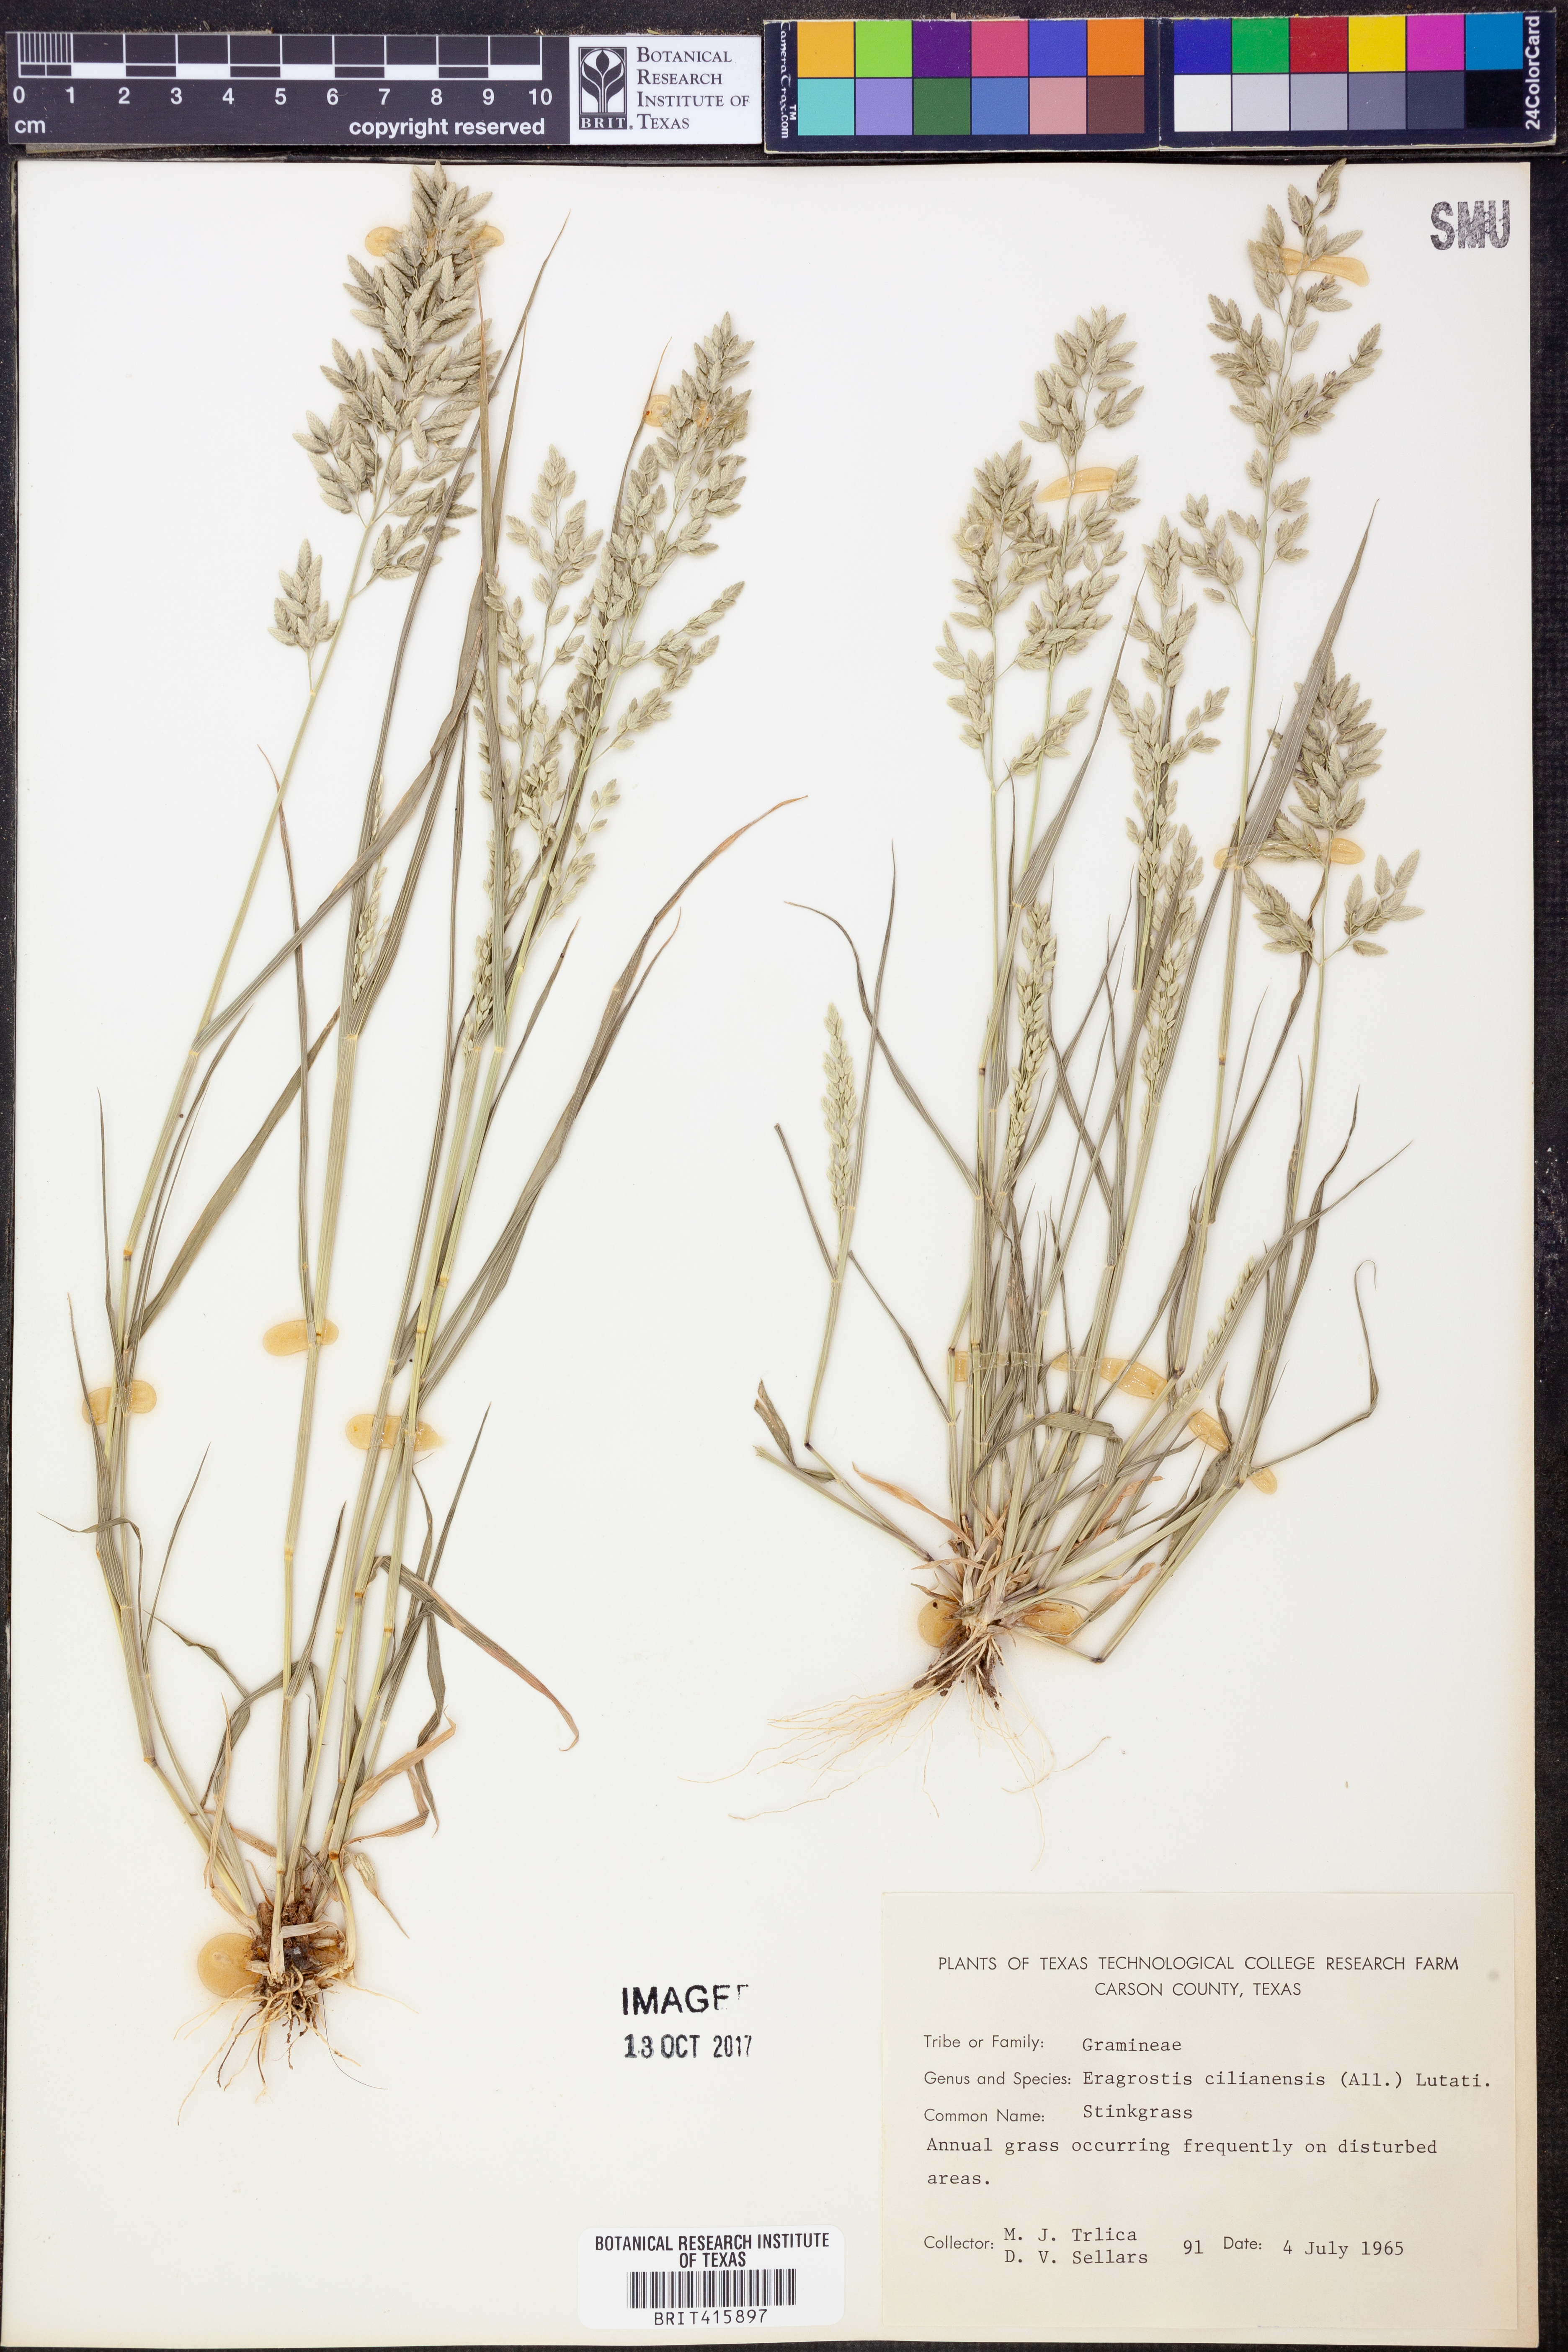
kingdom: Plantae
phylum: Tracheophyta
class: Liliopsida
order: Poales
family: Poaceae
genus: Eragrostis
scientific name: Eragrostis cilianensis
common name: Stinkgrass
